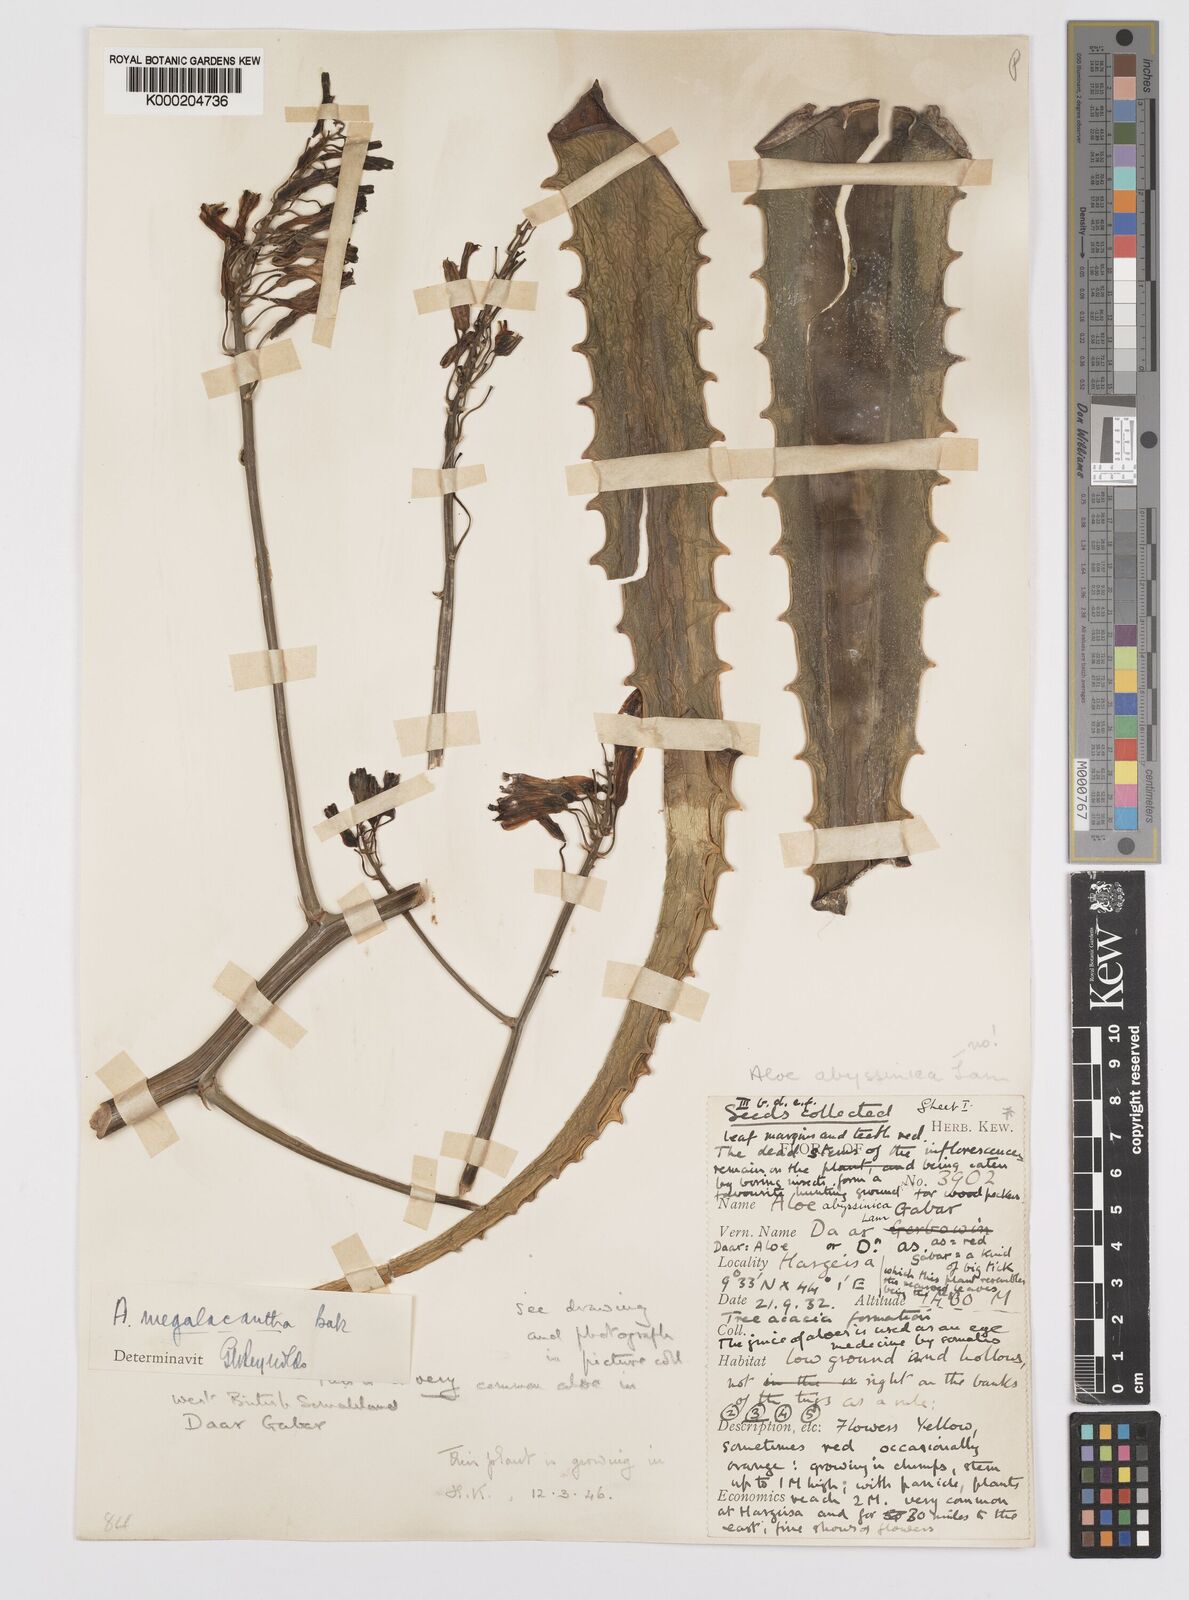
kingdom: Plantae
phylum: Tracheophyta
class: Liliopsida
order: Asparagales
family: Asphodelaceae
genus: Aloe
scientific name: Aloe megalacantha
